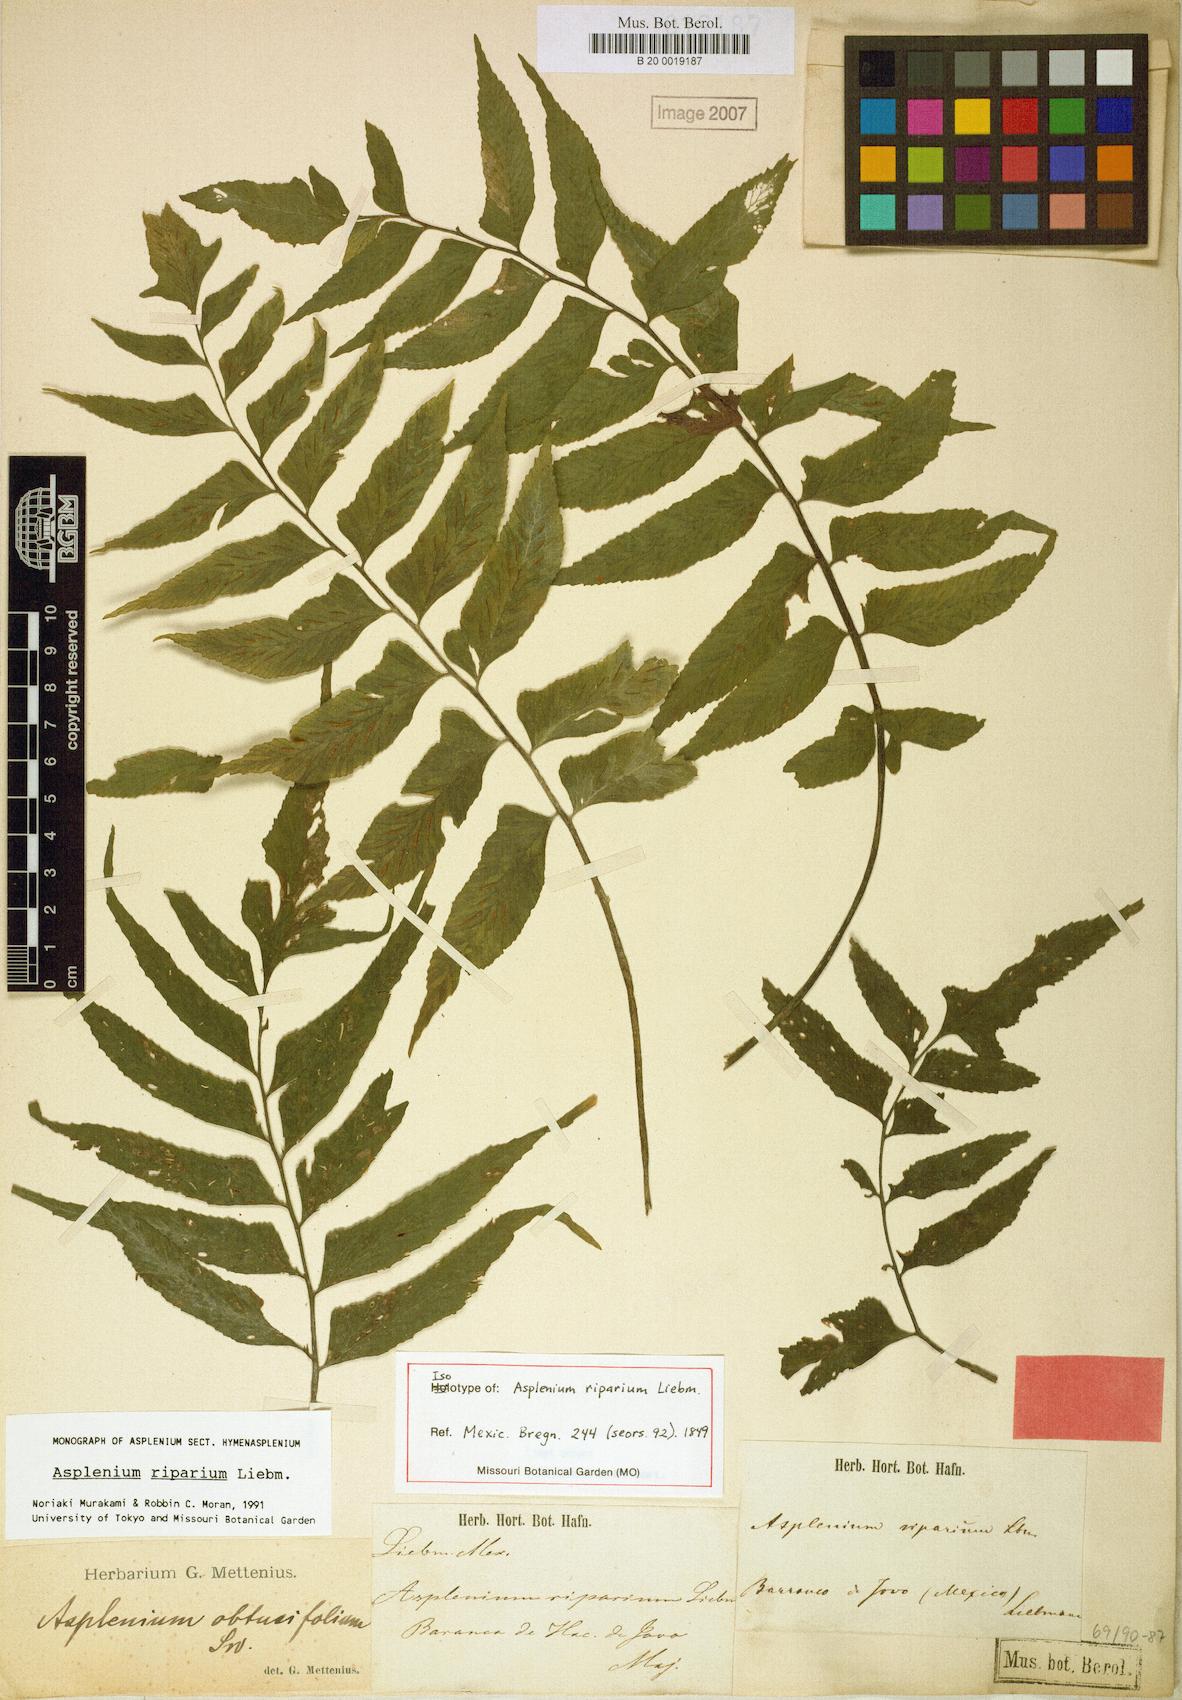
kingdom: Plantae
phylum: Tracheophyta
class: Polypodiopsida
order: Polypodiales
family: Aspleniaceae
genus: Hymenasplenium
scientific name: Hymenasplenium riparium
